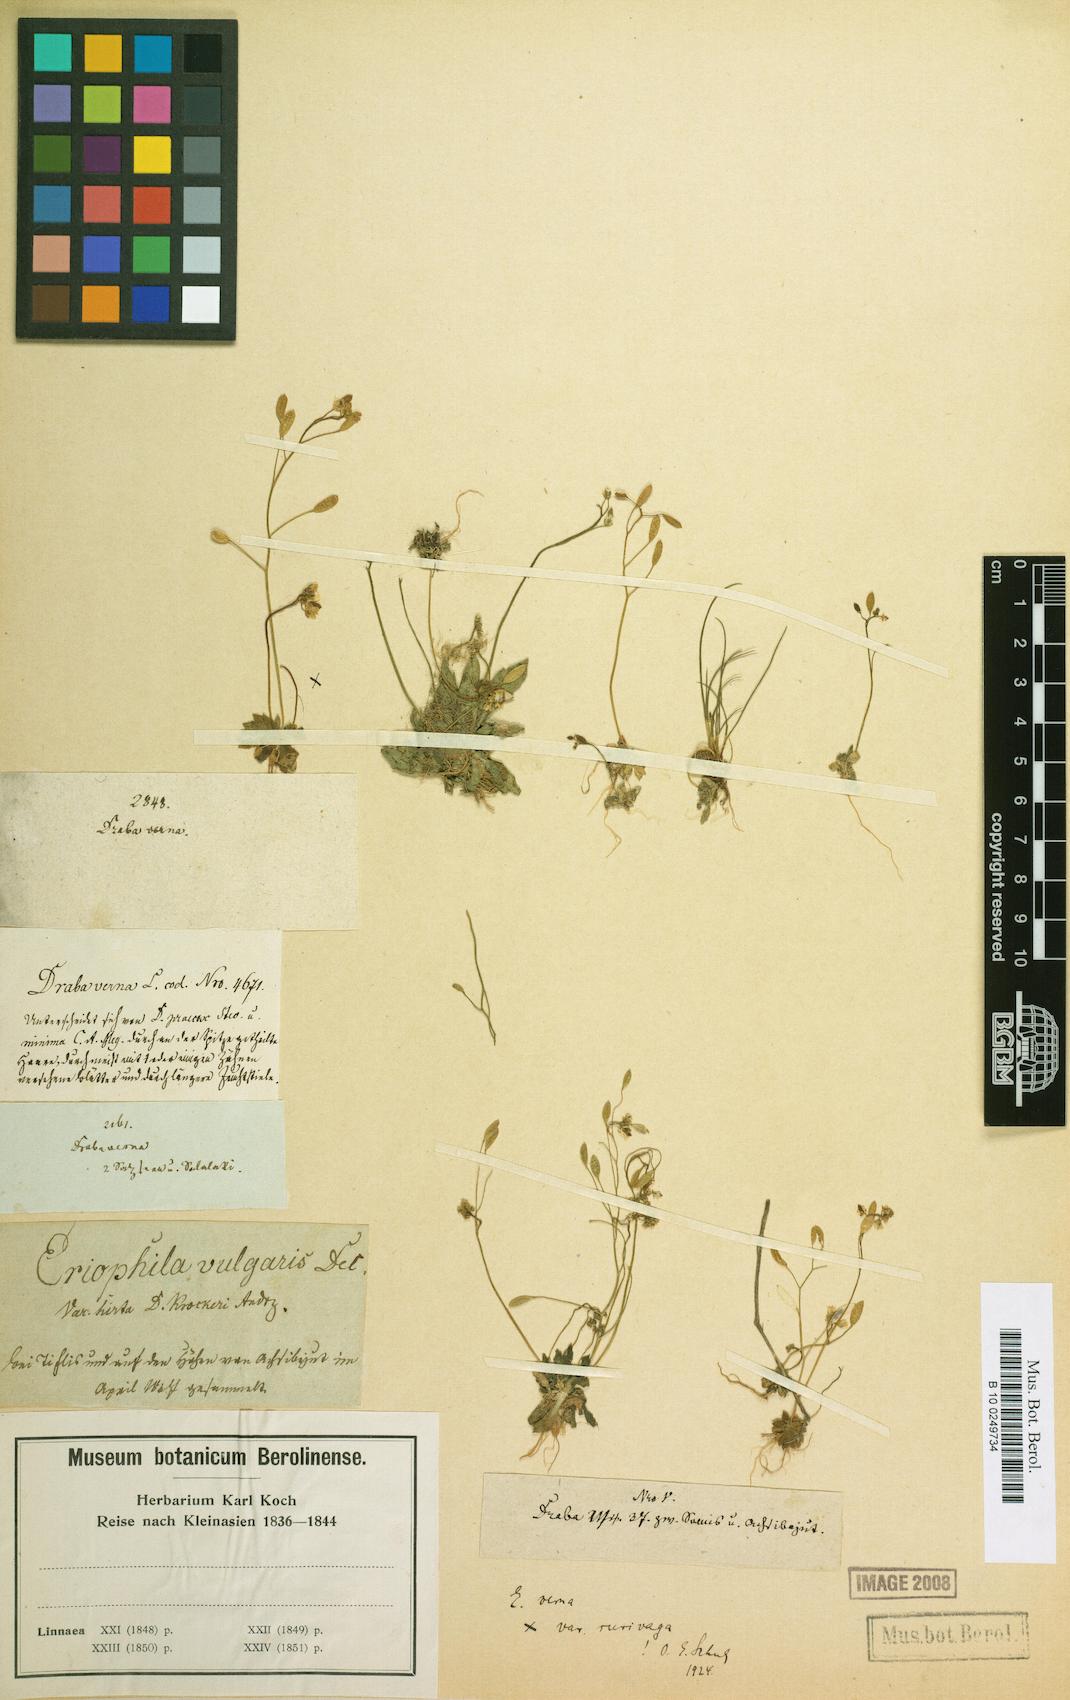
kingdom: Plantae
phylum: Tracheophyta
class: Magnoliopsida
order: Brassicales
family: Brassicaceae
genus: Draba
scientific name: Draba verna
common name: Spring draba
